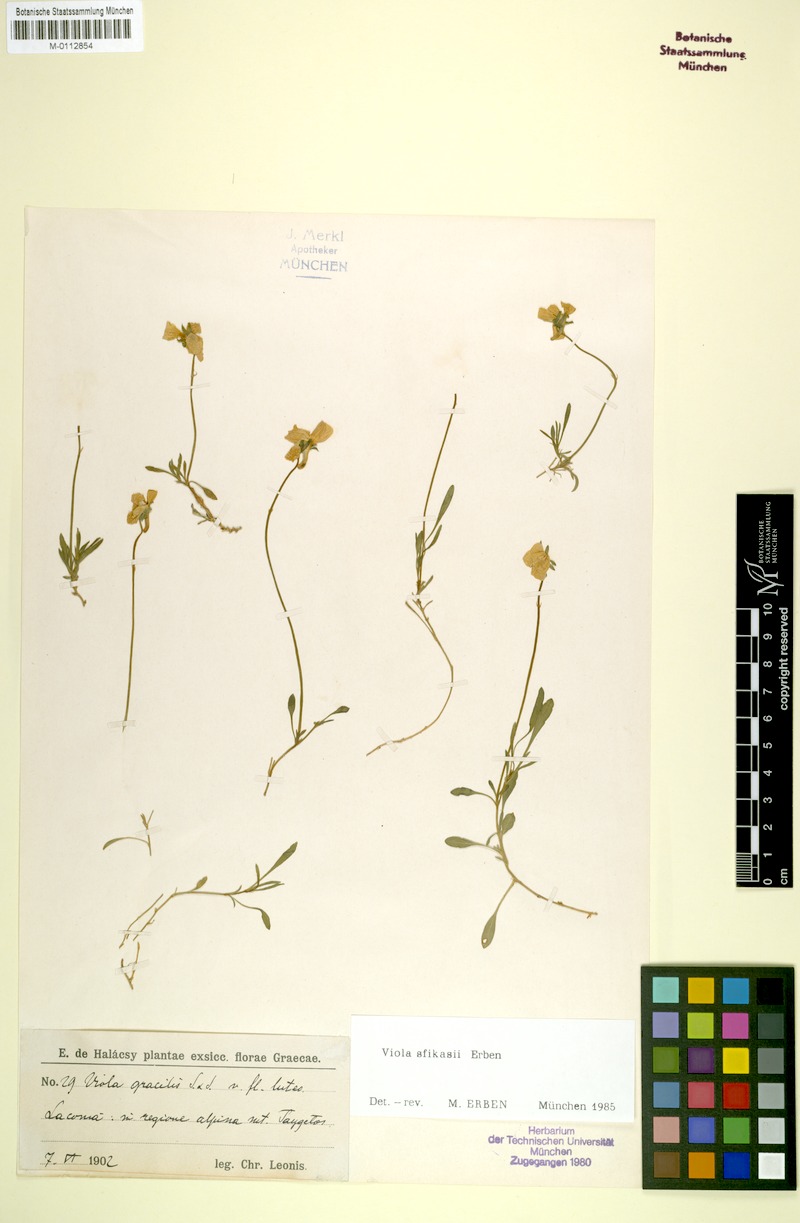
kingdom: Plantae
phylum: Tracheophyta
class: Magnoliopsida
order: Malpighiales
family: Violaceae
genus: Viola
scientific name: Viola sfikasiana
